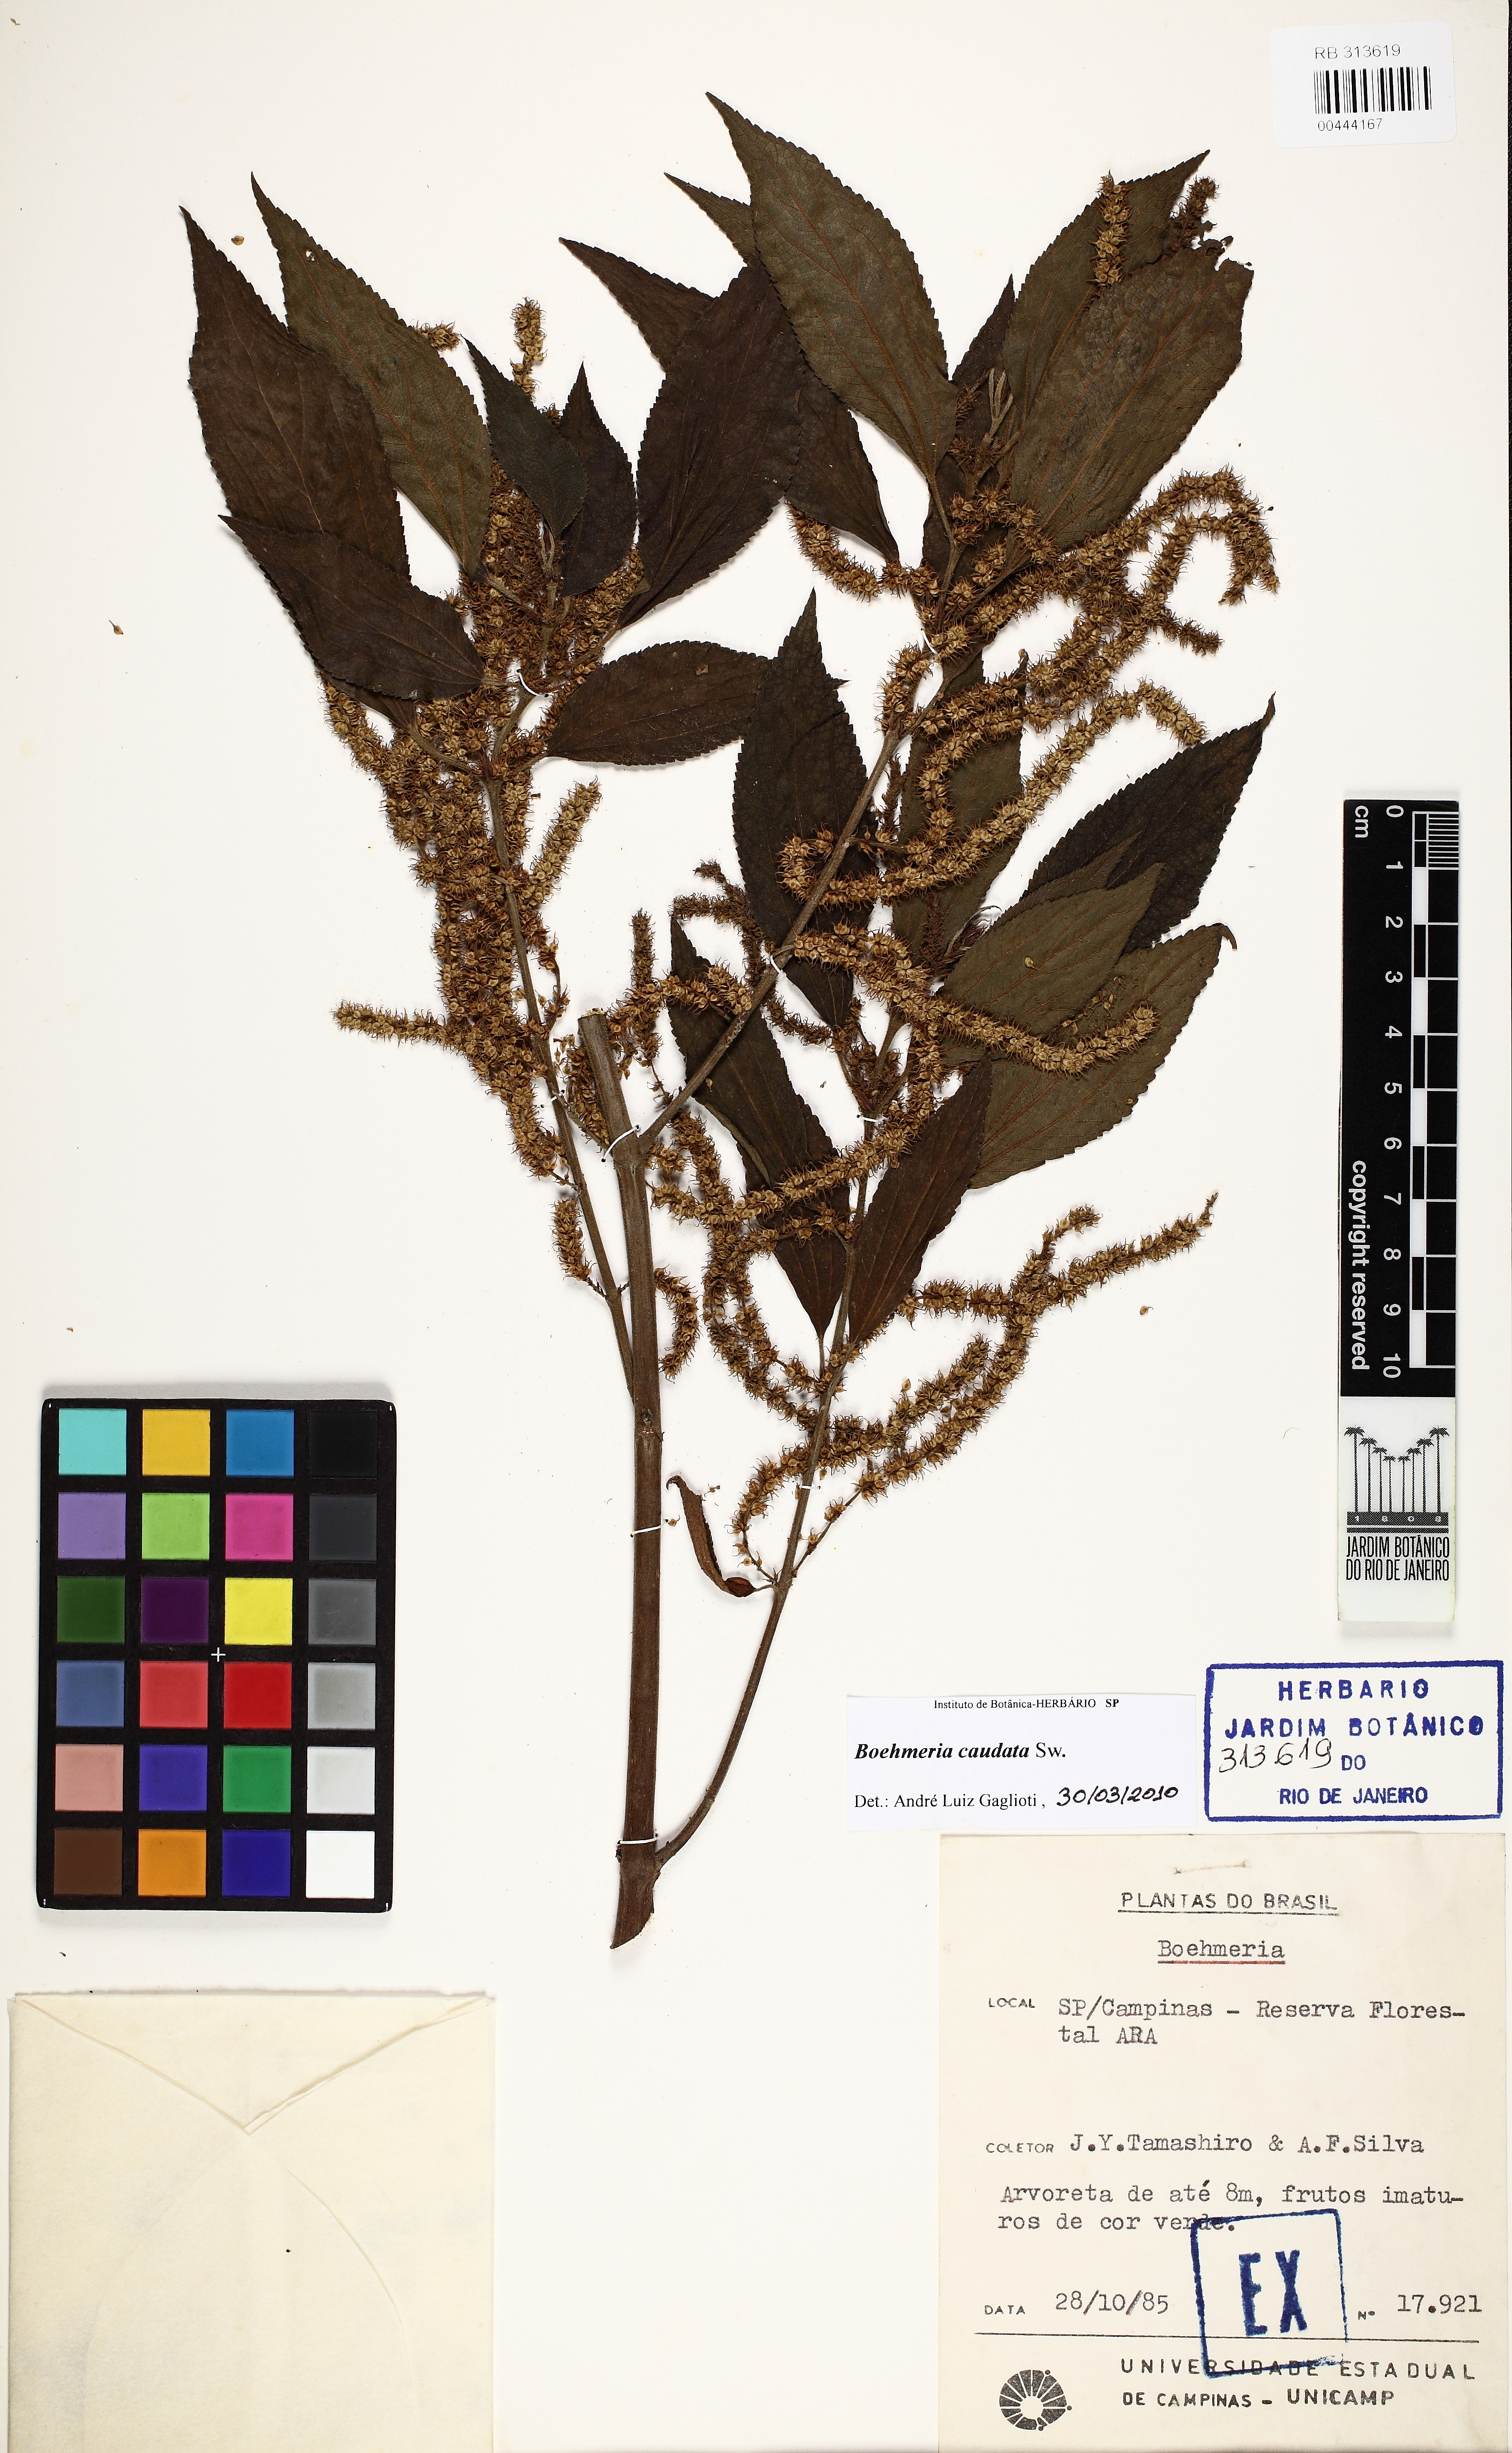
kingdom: Plantae
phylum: Tracheophyta
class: Magnoliopsida
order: Rosales
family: Urticaceae
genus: Boehmeria
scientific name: Boehmeria caudata
